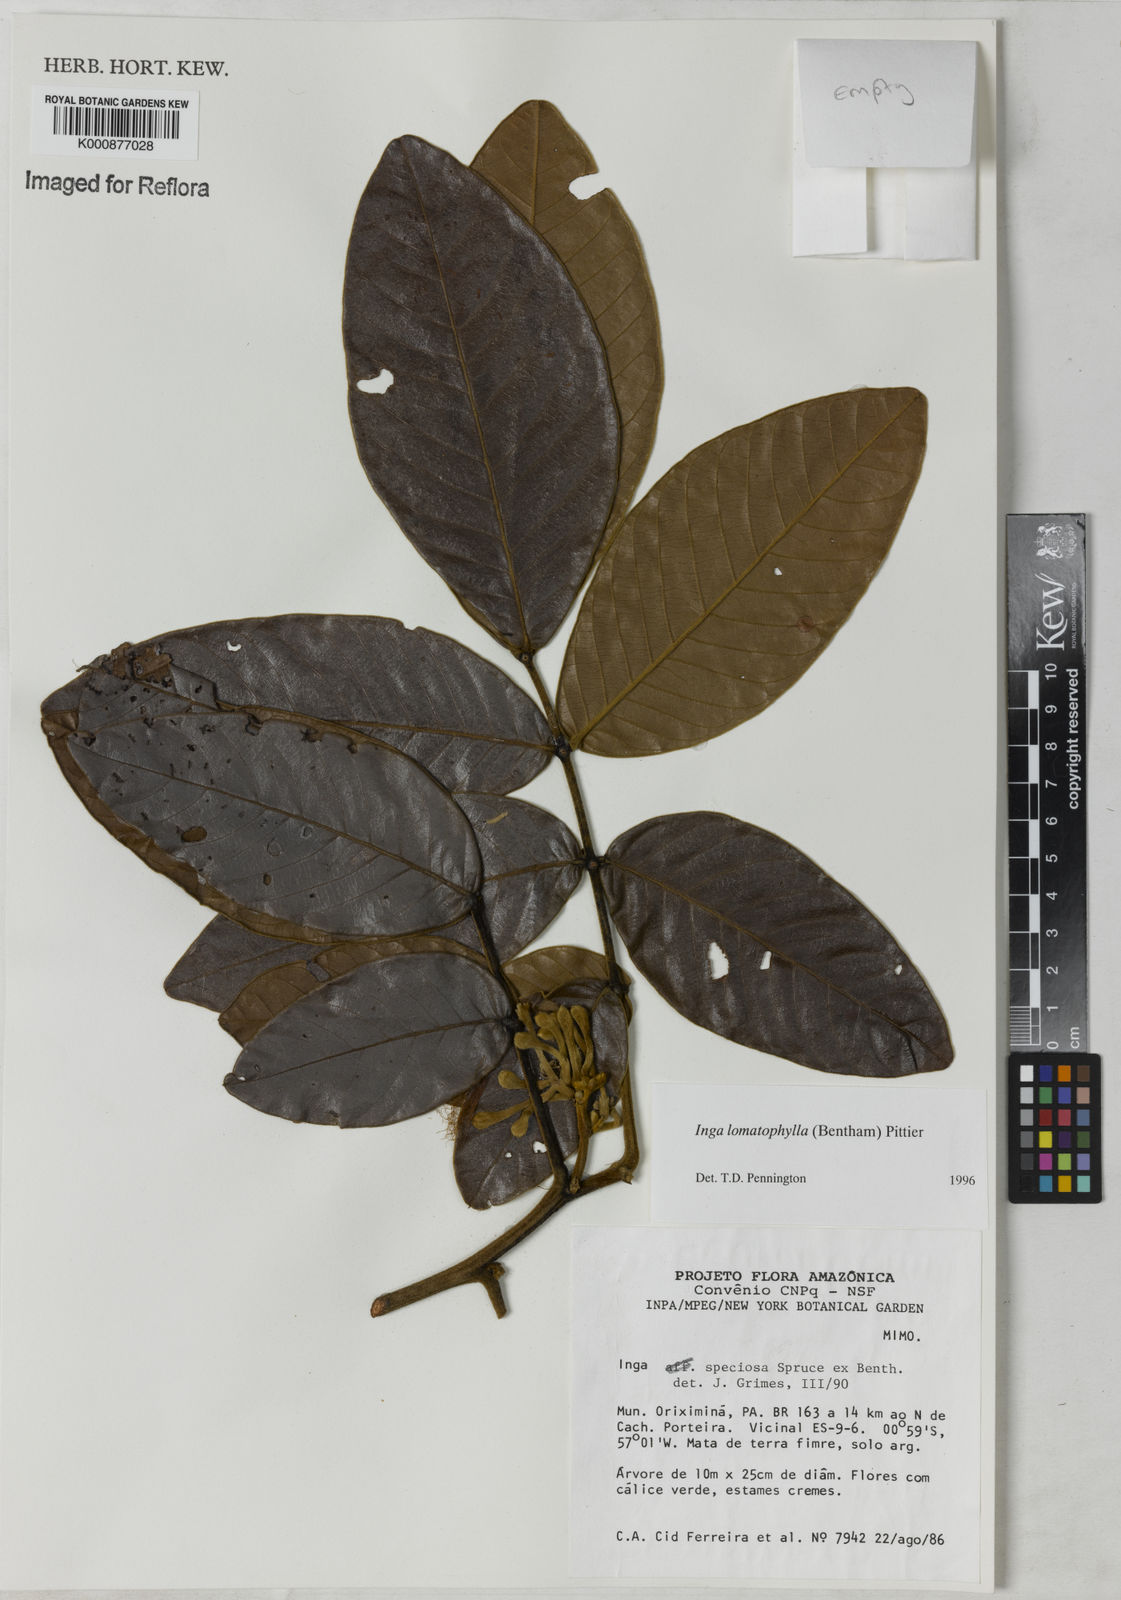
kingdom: Plantae
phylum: Tracheophyta
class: Magnoliopsida
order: Fabales
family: Fabaceae
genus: Inga
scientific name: Inga lomatophylla
